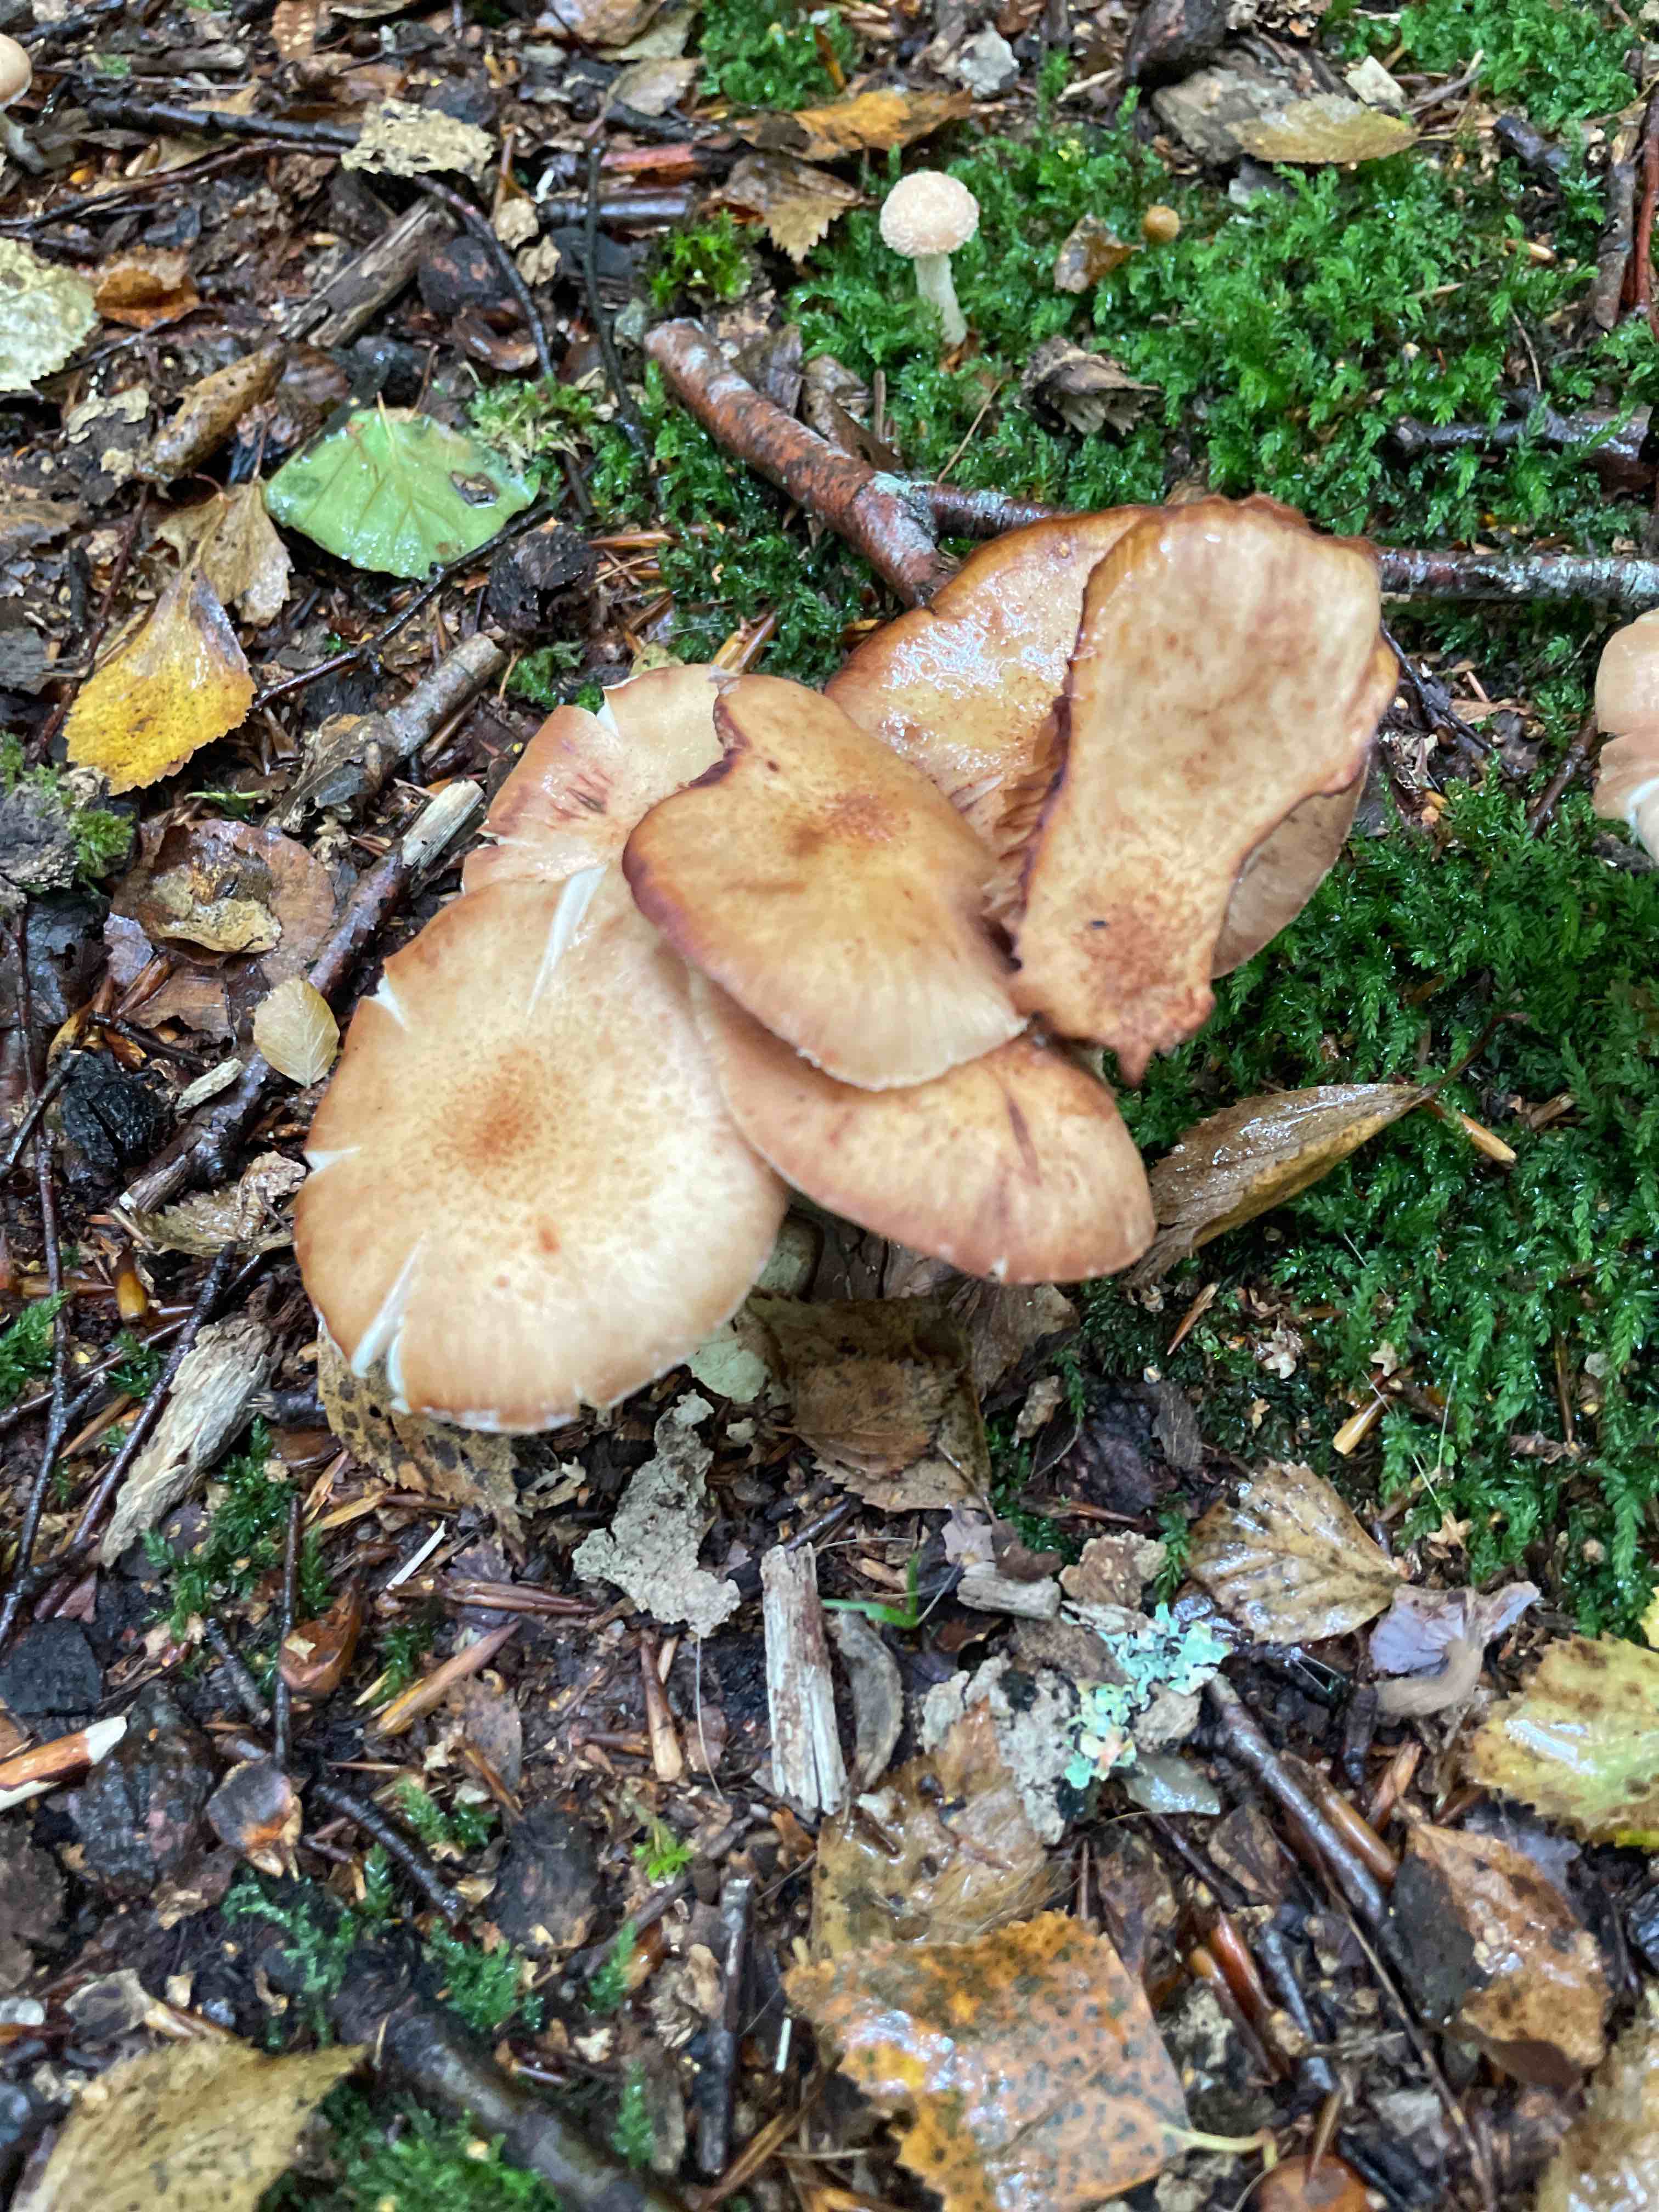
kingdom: Fungi
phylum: Basidiomycota
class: Agaricomycetes
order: Agaricales
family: Physalacriaceae
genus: Armillaria
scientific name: Armillaria
